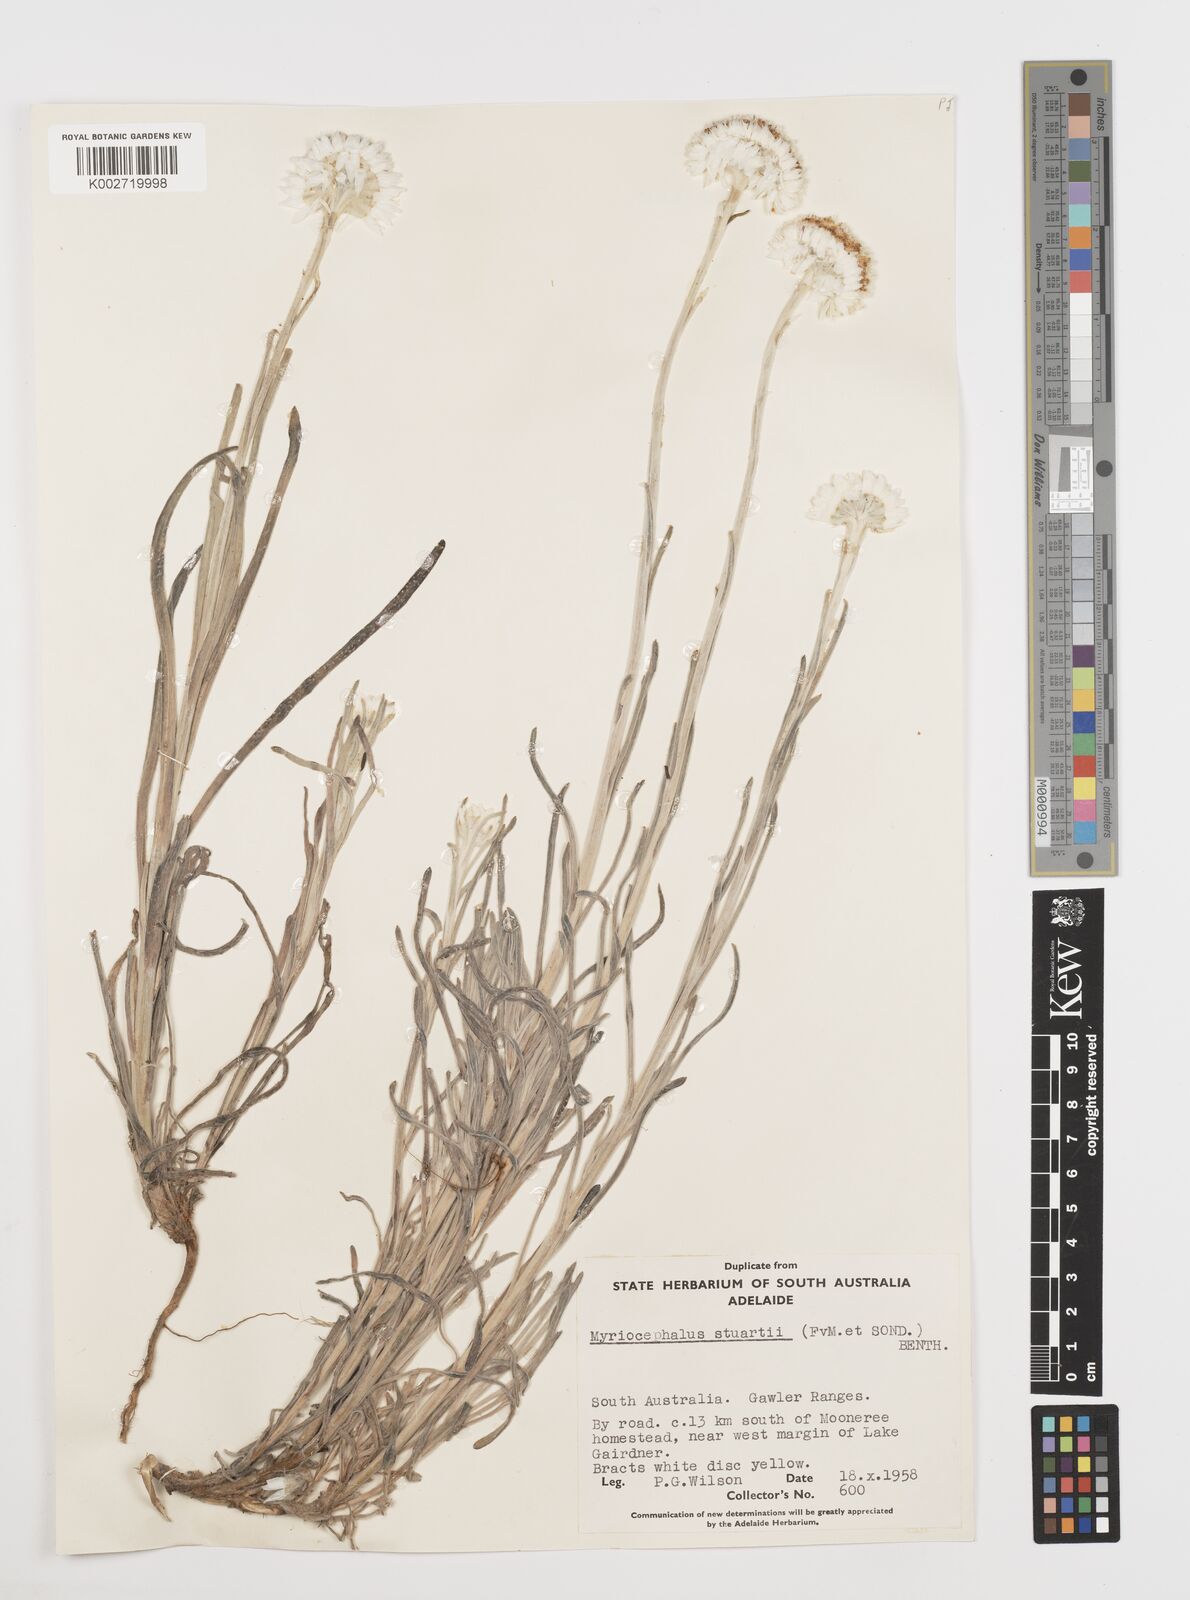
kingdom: Plantae
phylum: Tracheophyta
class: Magnoliopsida
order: Asterales
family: Asteraceae
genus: Polycalymma
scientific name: Polycalymma stuartii
